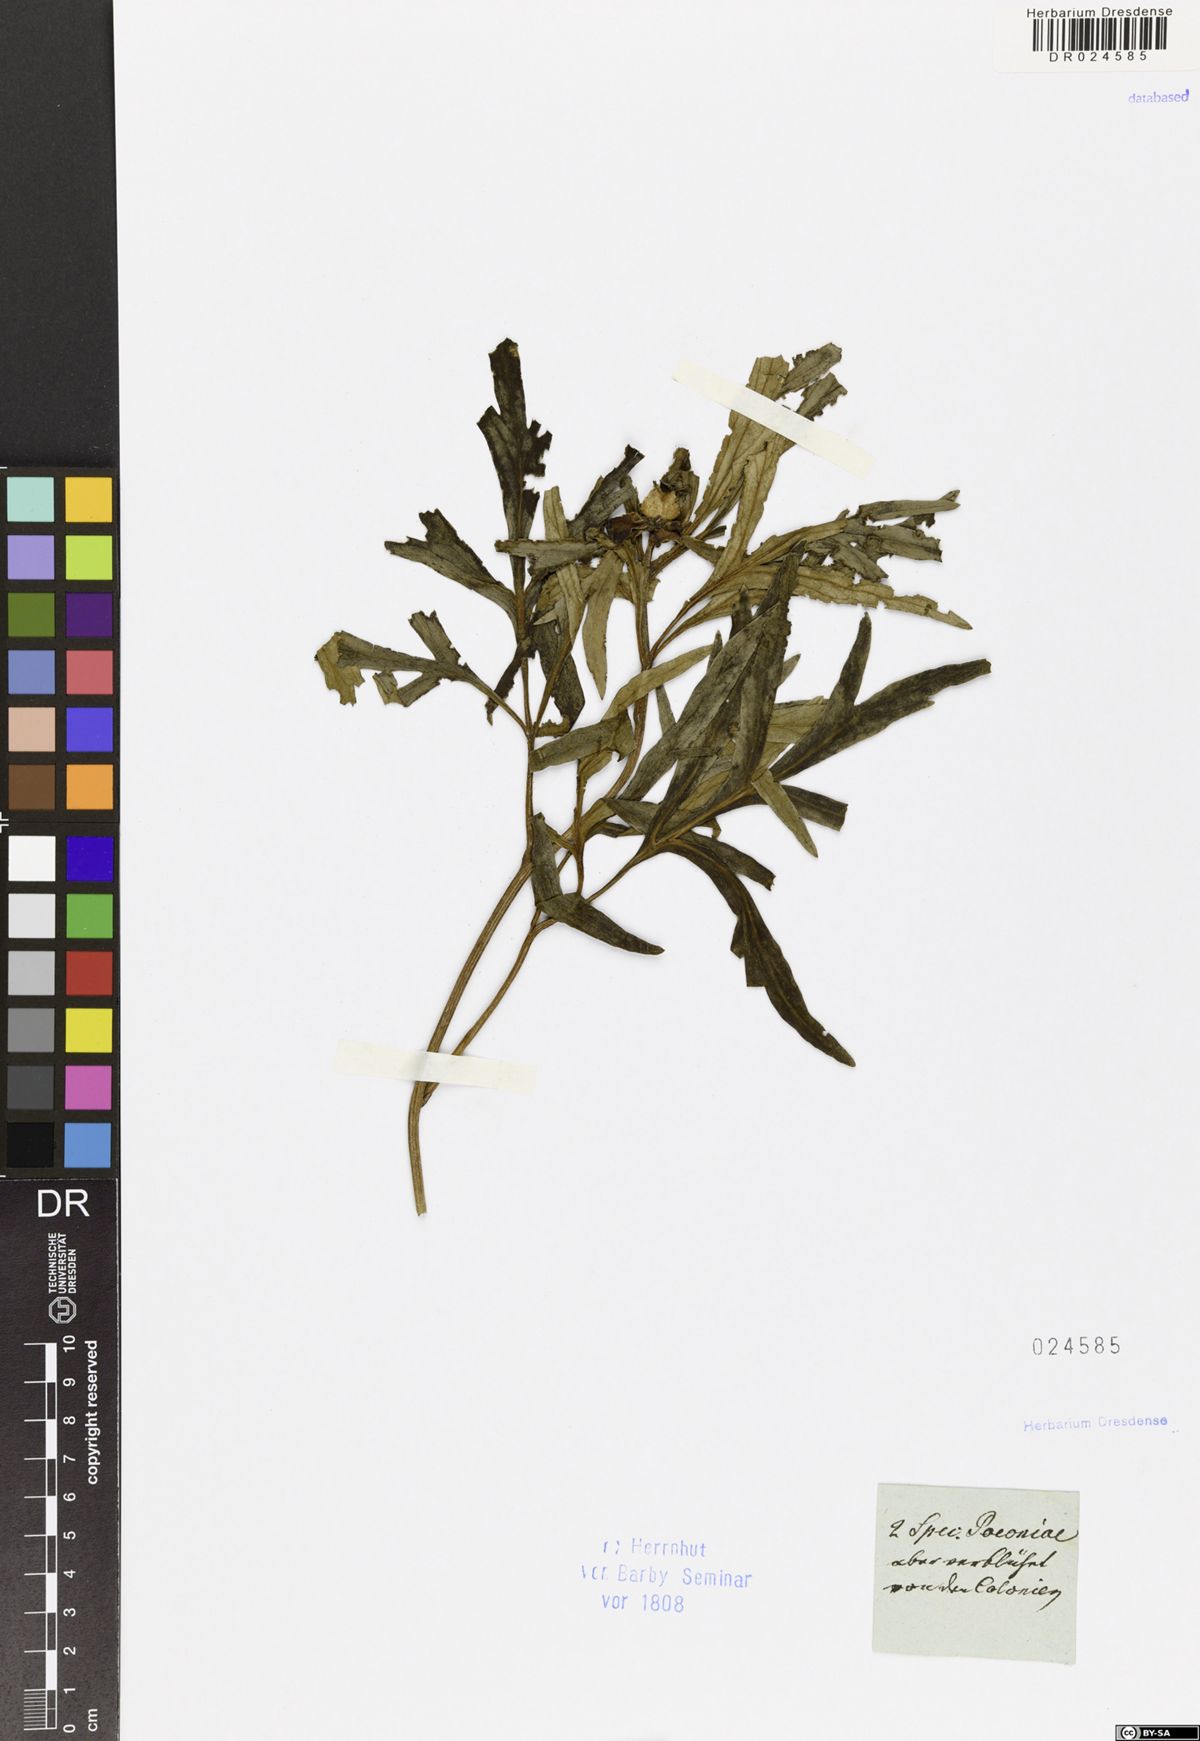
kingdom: Plantae
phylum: Tracheophyta
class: Magnoliopsida
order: Saxifragales
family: Paeoniaceae
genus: Paeonia
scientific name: Paeonia anomala
